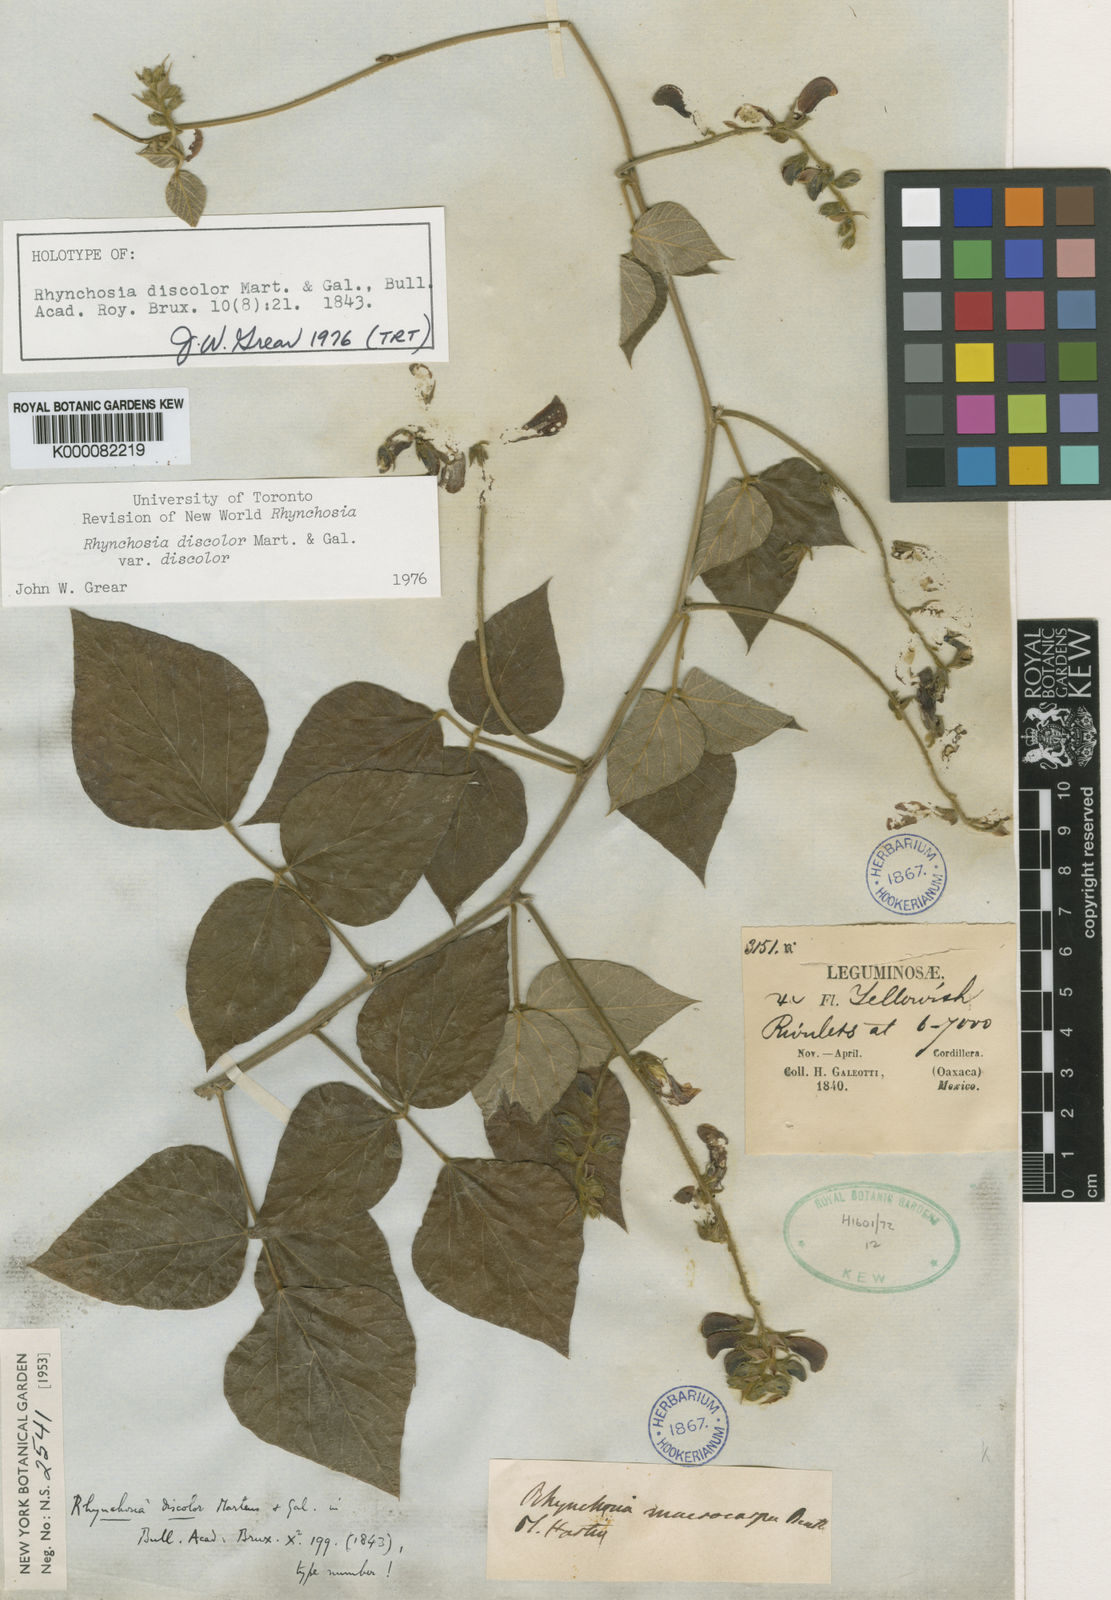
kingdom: Plantae
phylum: Tracheophyta
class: Magnoliopsida
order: Fabales
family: Fabaceae
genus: Rhynchosia
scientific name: Rhynchosia discolor
